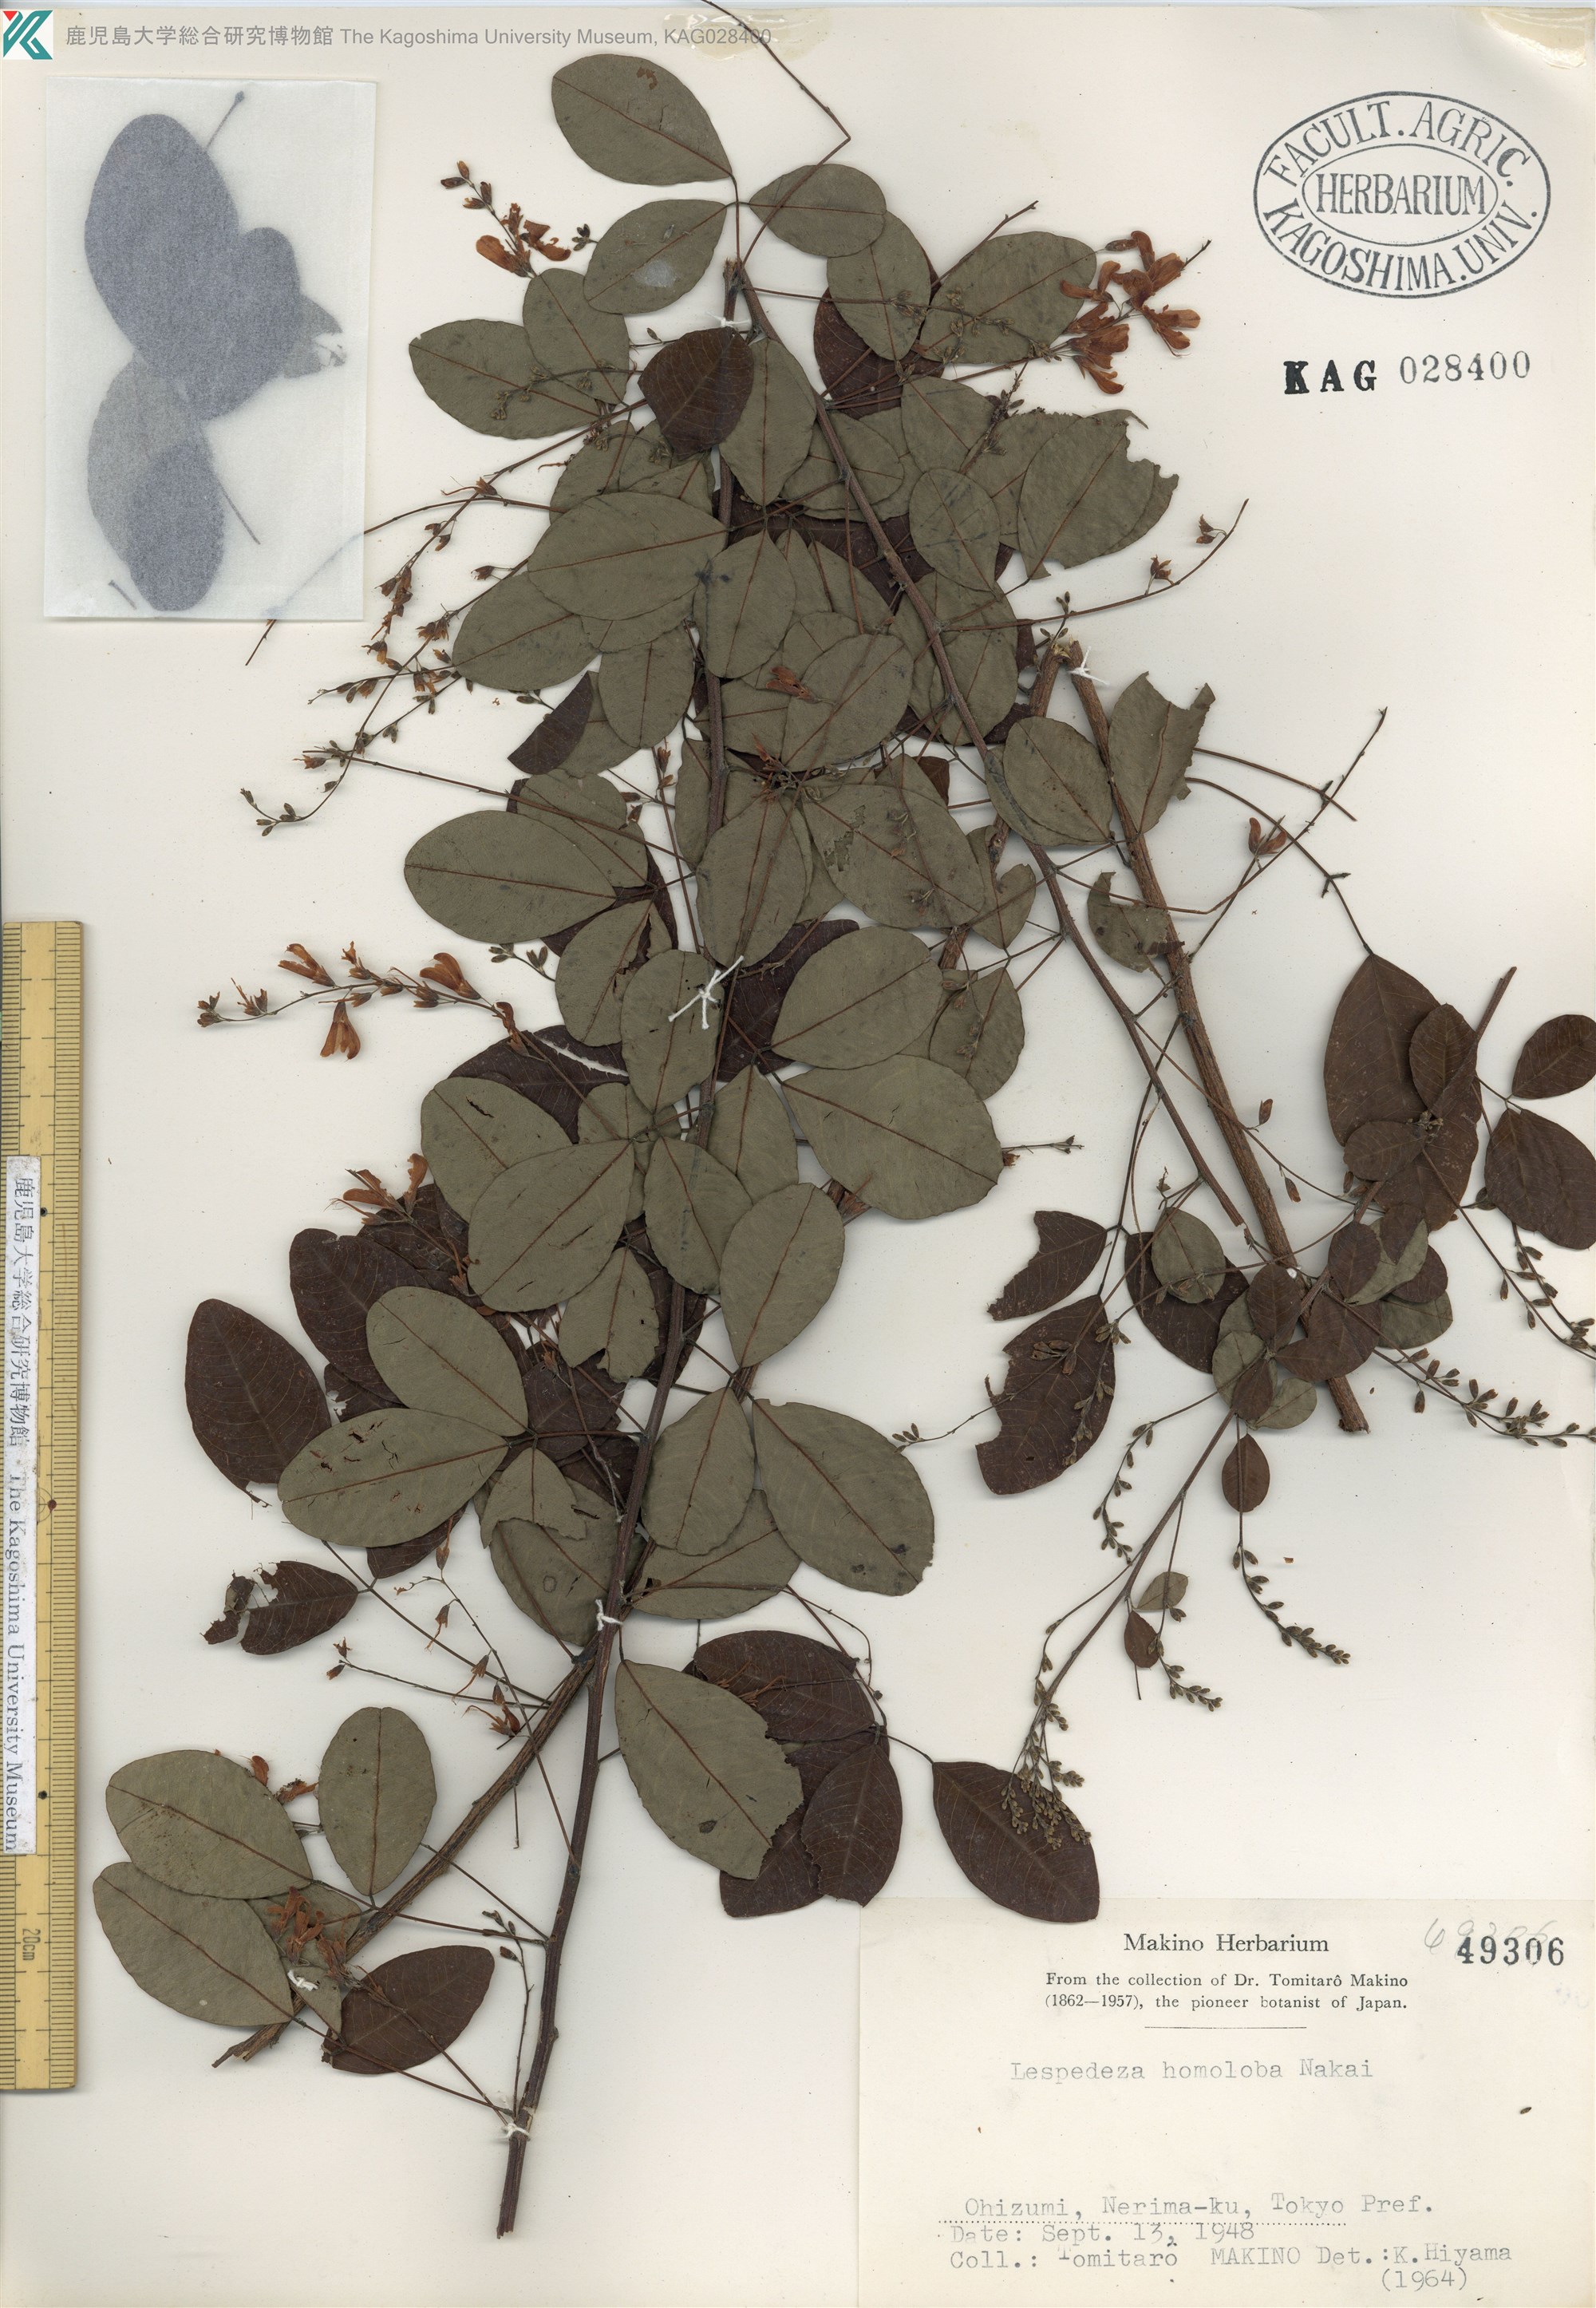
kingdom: Plantae
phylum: Tracheophyta
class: Magnoliopsida
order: Fabales
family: Fabaceae
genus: Lespedeza
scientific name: Lespedeza homoloba
